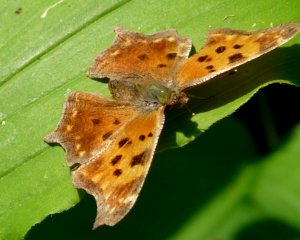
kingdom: Animalia
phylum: Arthropoda
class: Insecta
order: Lepidoptera
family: Nymphalidae
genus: Polygonia
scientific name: Polygonia comma
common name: Eastern Comma
